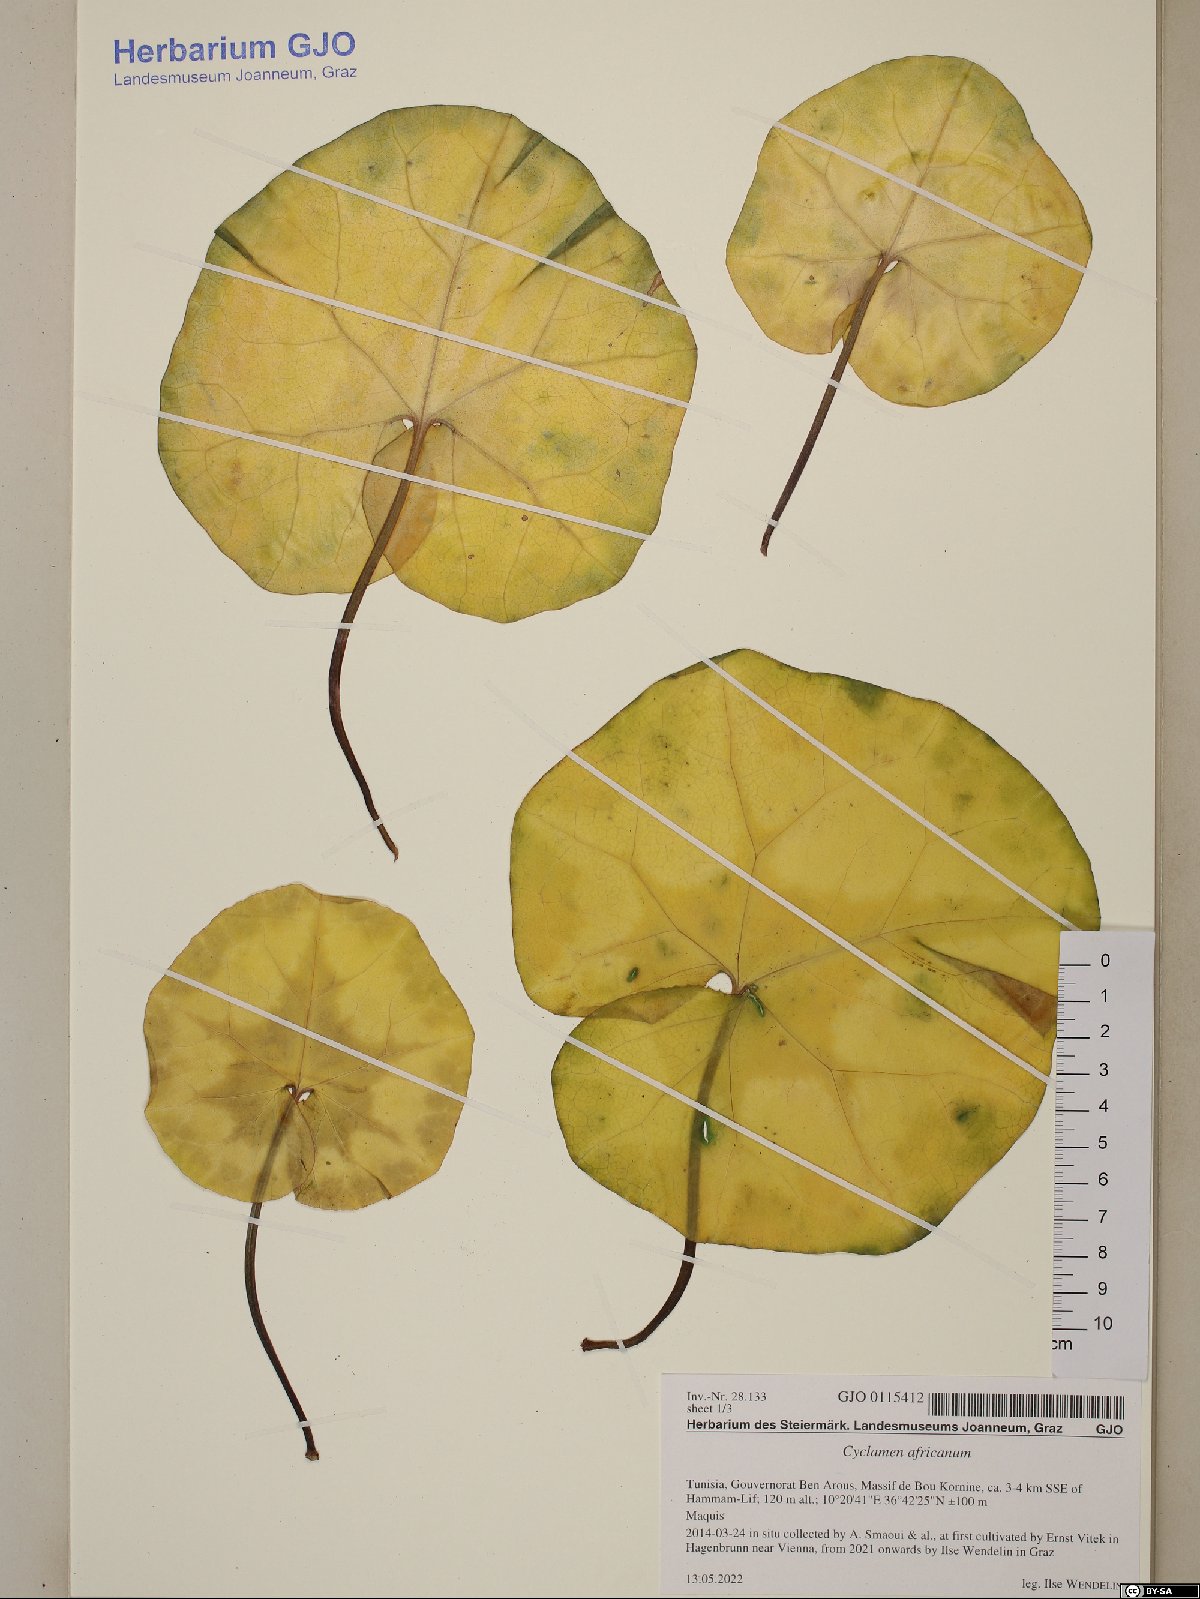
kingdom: Plantae
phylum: Tracheophyta
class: Magnoliopsida
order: Ericales
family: Primulaceae
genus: Cyclamen
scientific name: Cyclamen africanum
